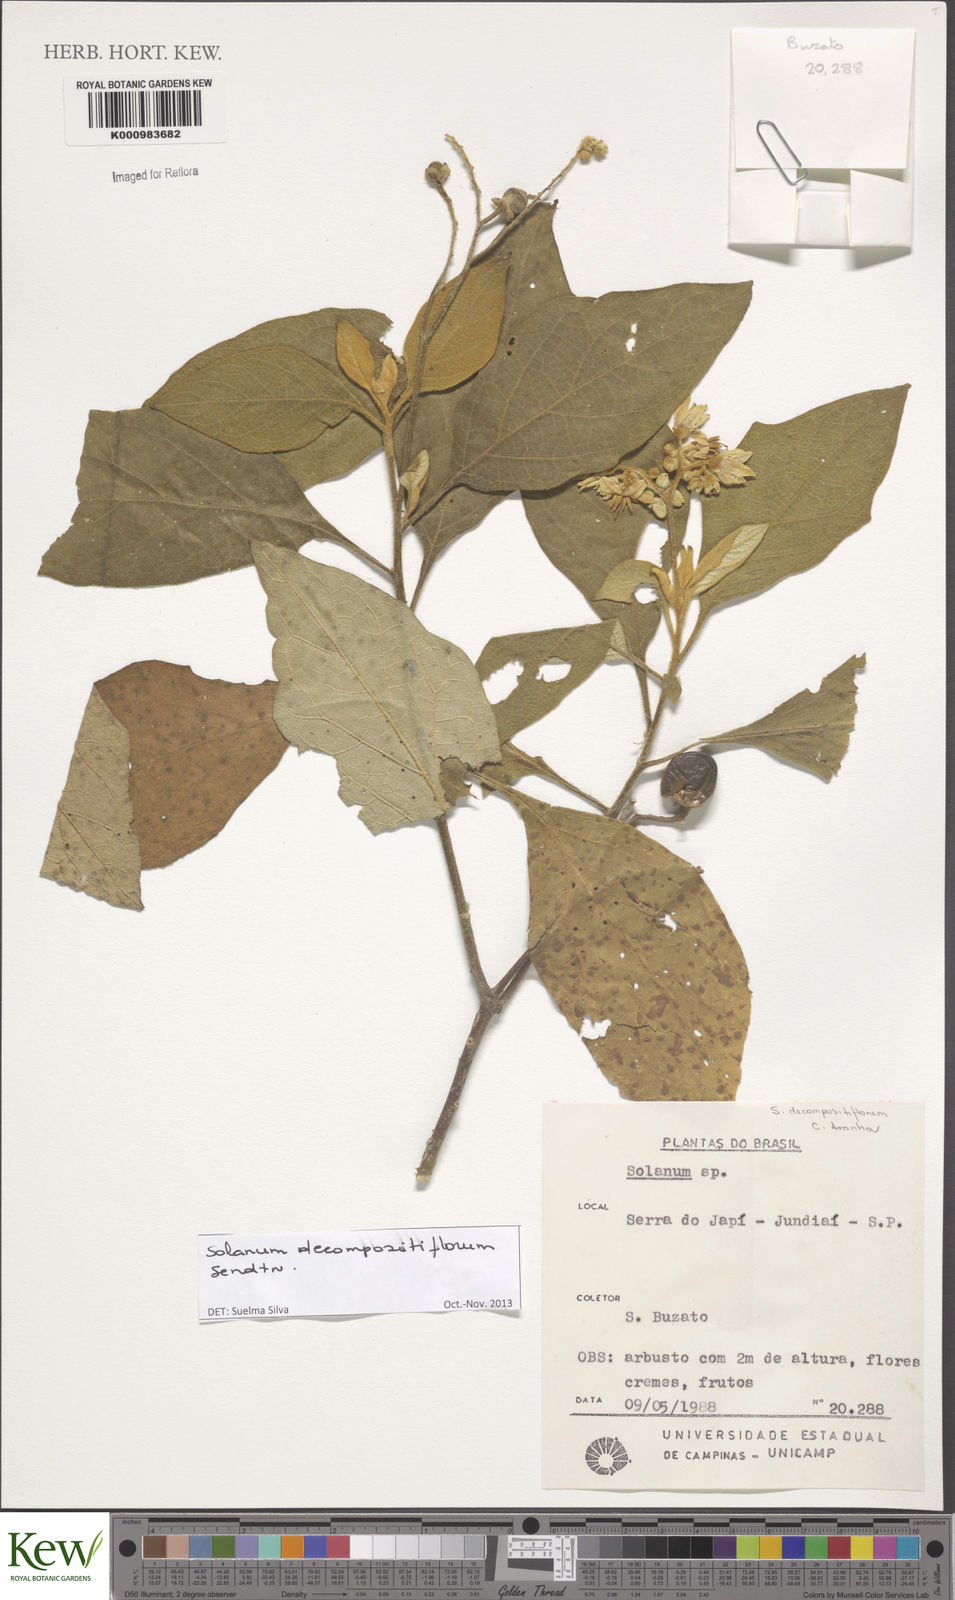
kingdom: Plantae
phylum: Tracheophyta
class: Magnoliopsida
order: Solanales
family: Solanaceae
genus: Solanum
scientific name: Solanum decompositiflorum
